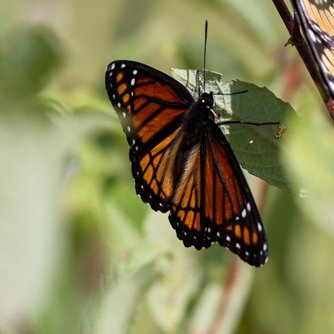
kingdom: Animalia
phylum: Arthropoda
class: Insecta
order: Lepidoptera
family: Nymphalidae
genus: Limenitis
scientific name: Limenitis archippus
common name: Viceroy
